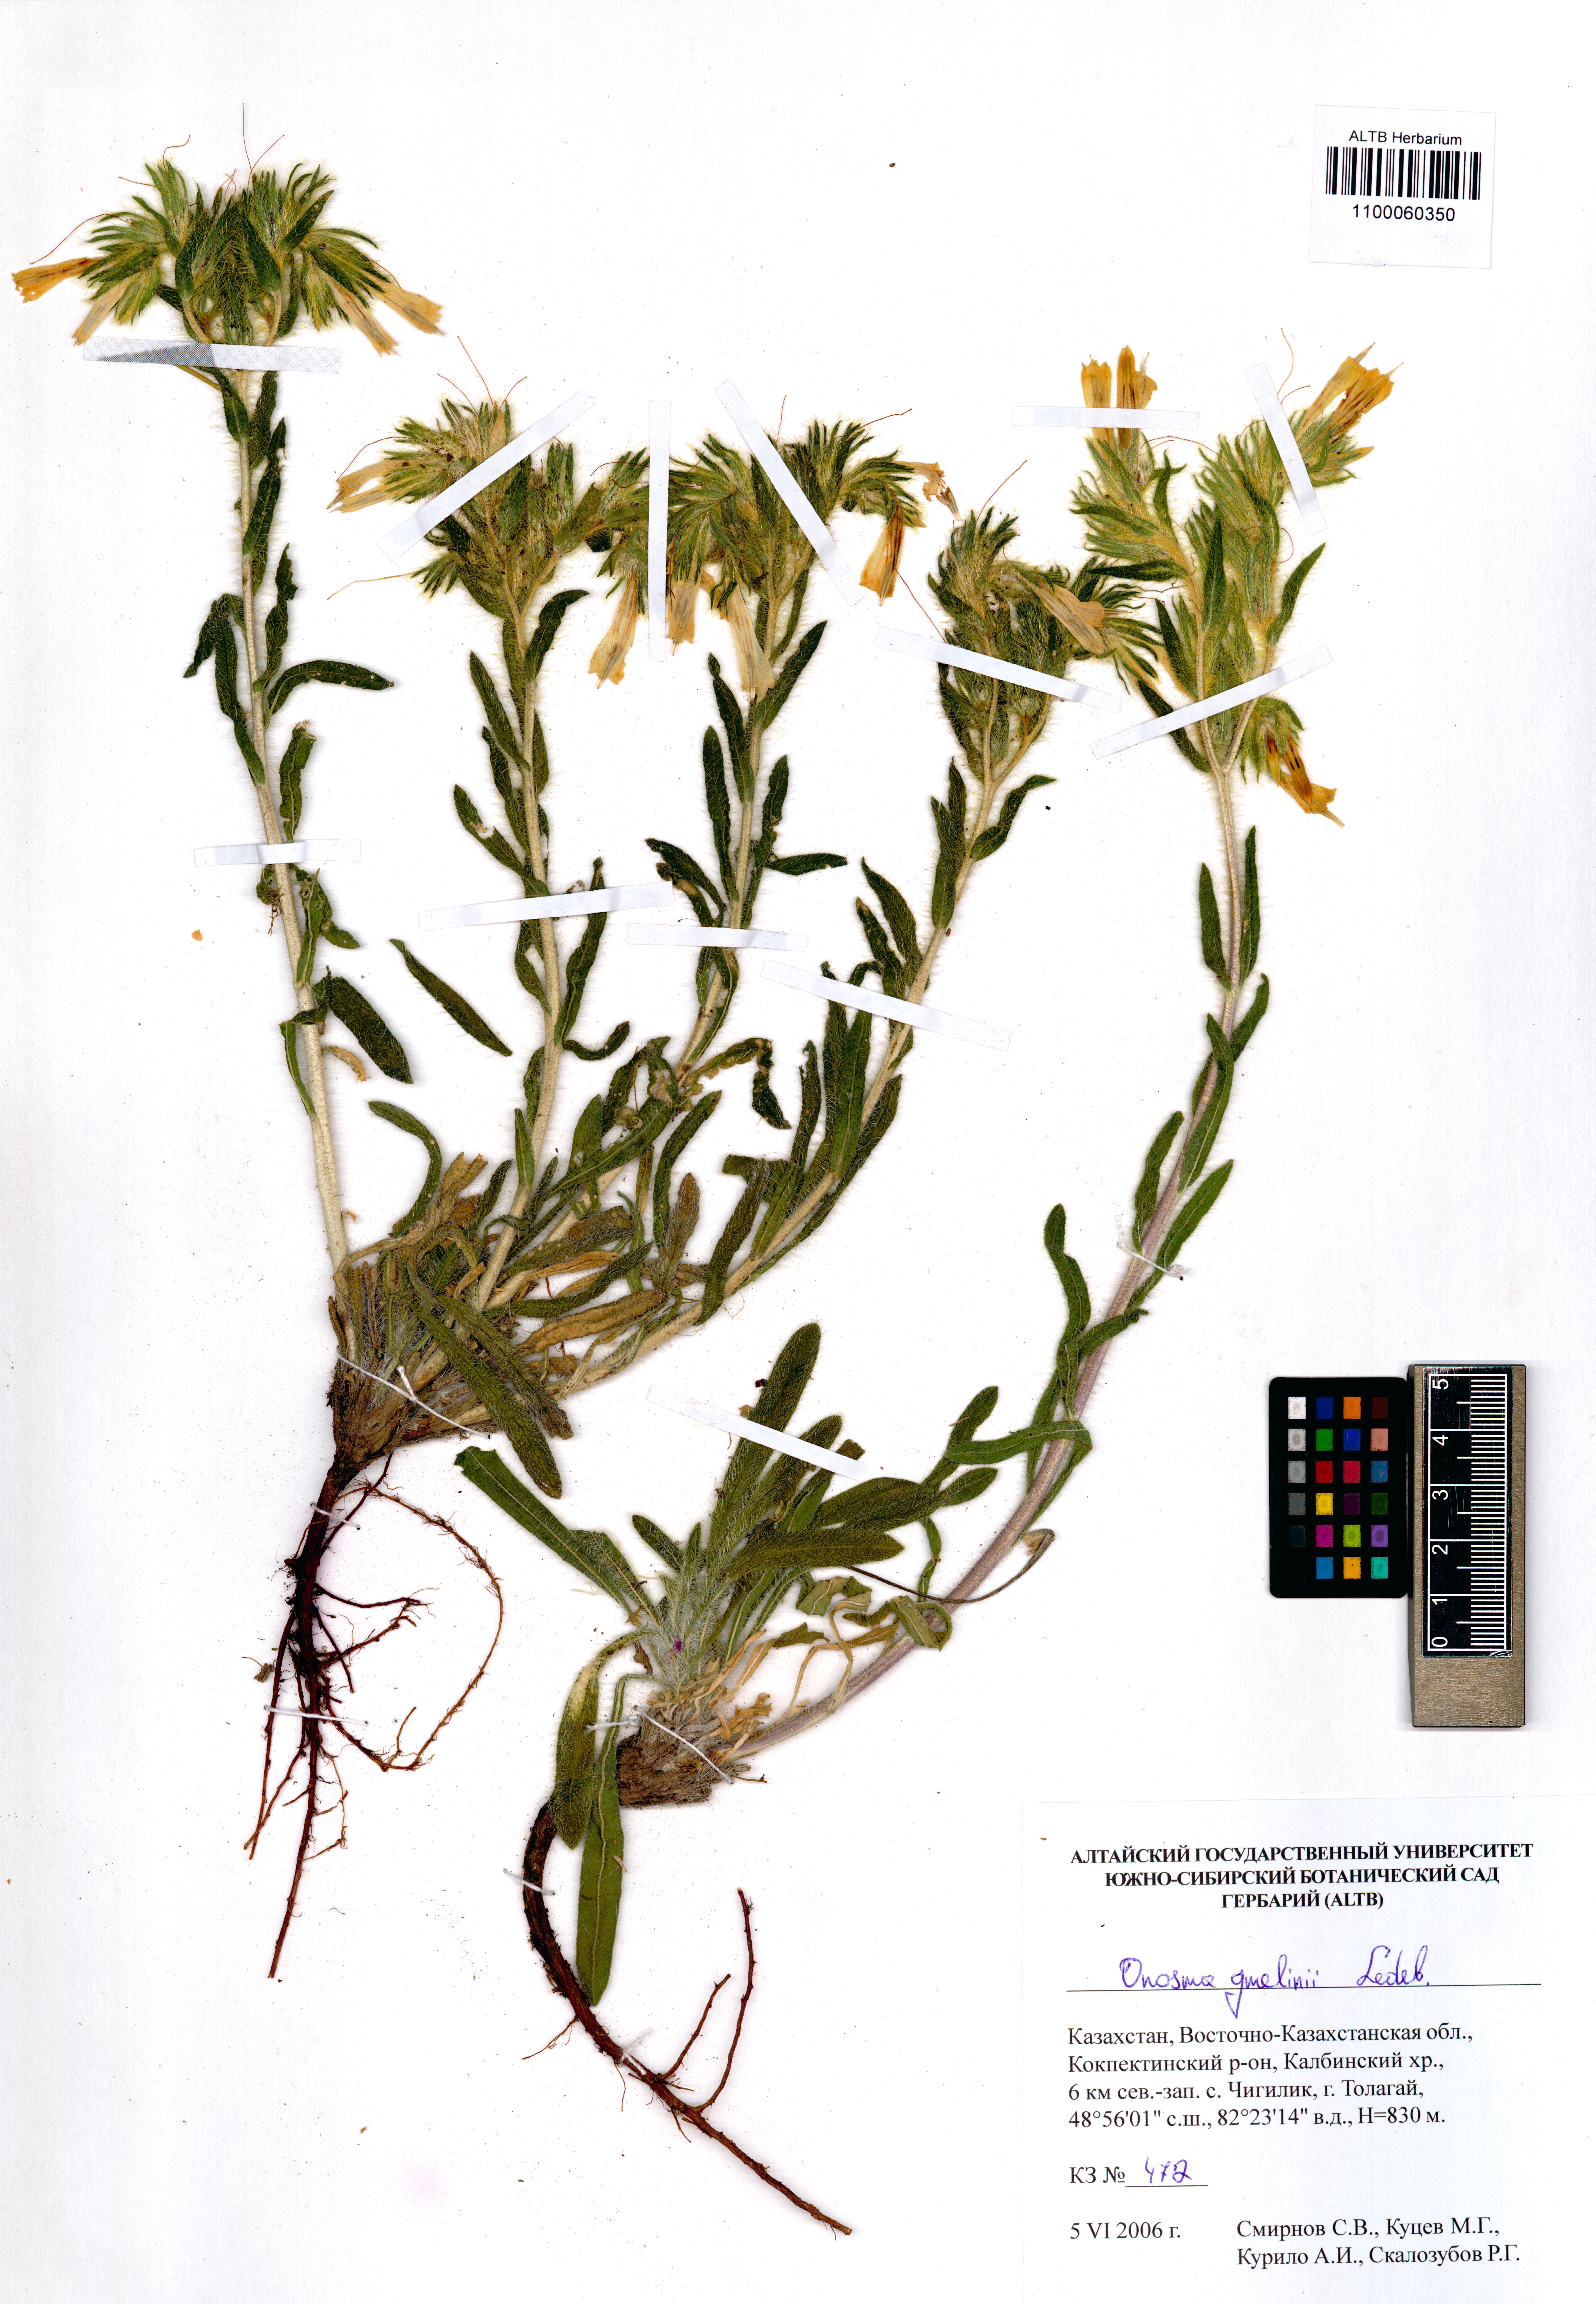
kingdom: Plantae
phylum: Tracheophyta
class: Magnoliopsida
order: Boraginales
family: Boraginaceae
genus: Onosma
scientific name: Onosma gmelinii
